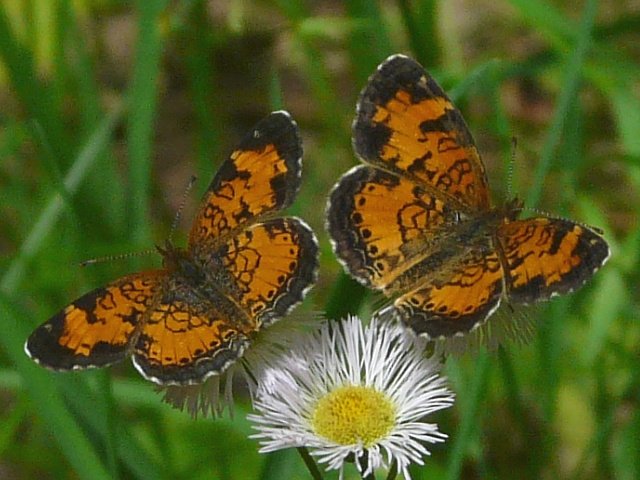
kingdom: Animalia
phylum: Arthropoda
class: Insecta
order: Lepidoptera
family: Nymphalidae
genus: Phyciodes
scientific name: Phyciodes tharos
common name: Pearl Crescent
